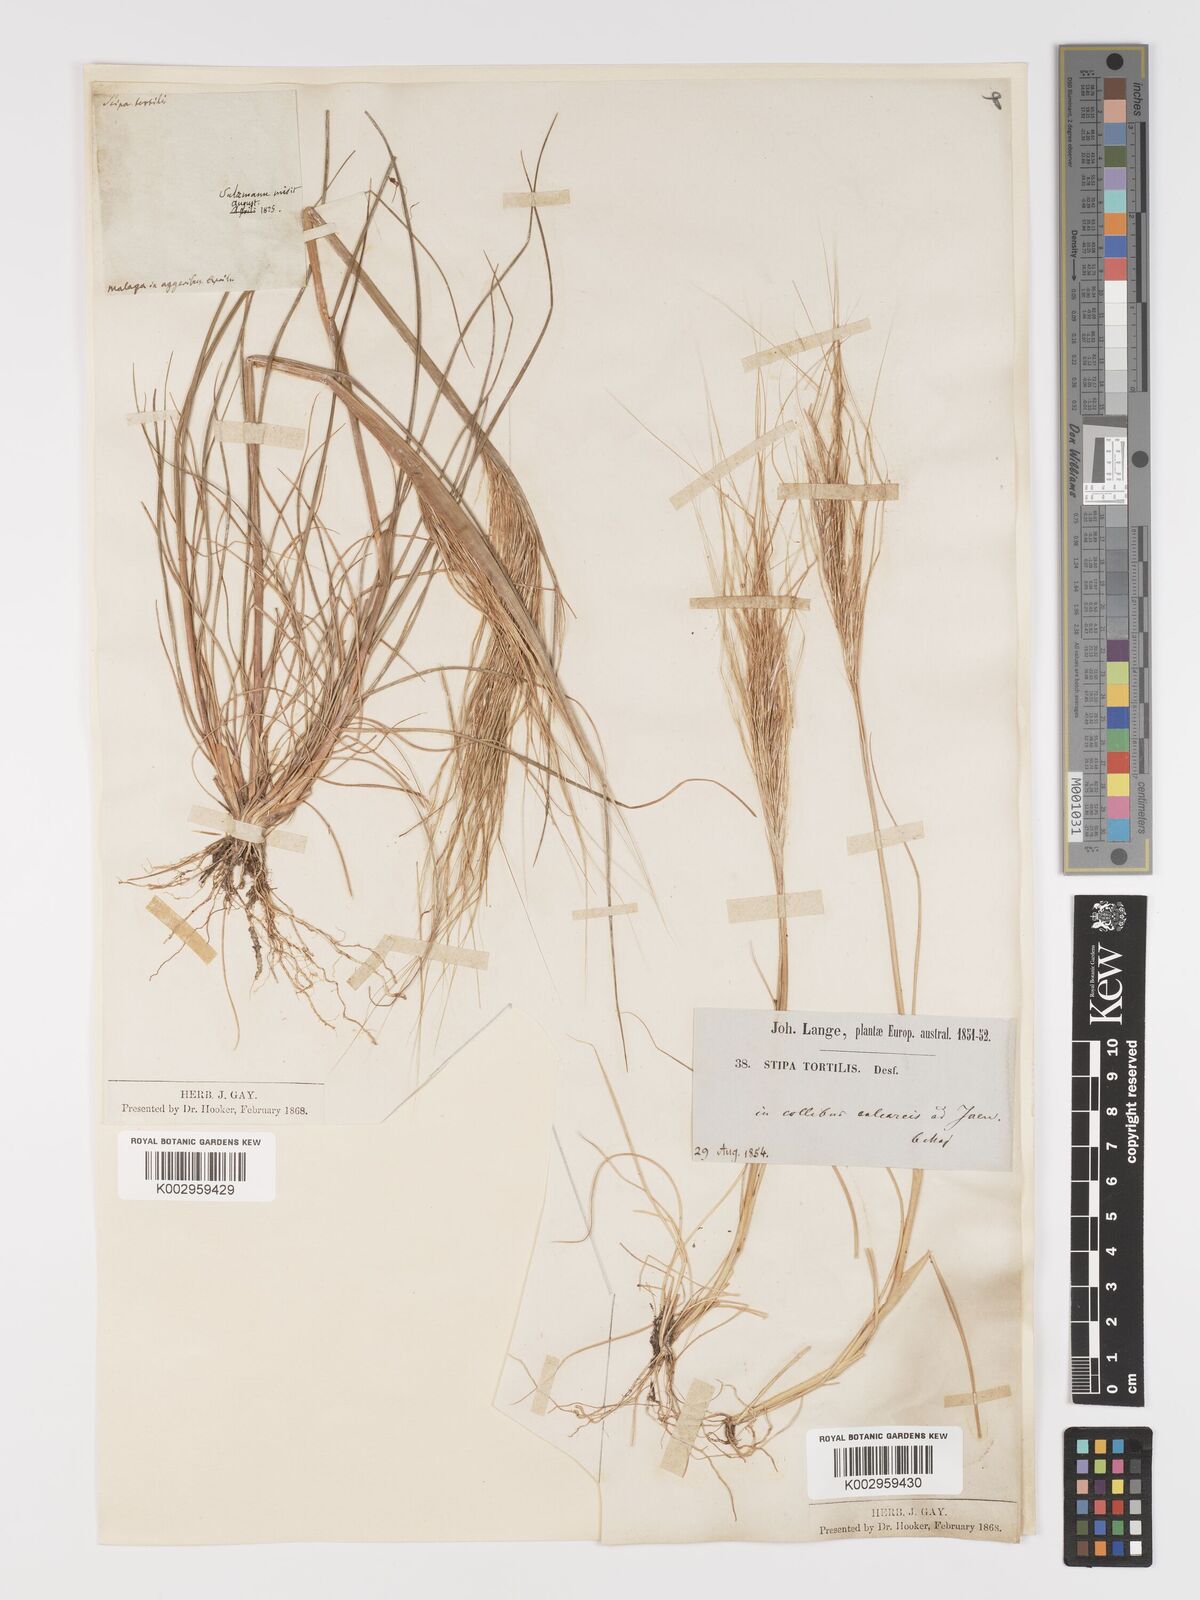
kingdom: Plantae
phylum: Tracheophyta
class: Liliopsida
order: Poales
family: Poaceae
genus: Stipa
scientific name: Stipa
